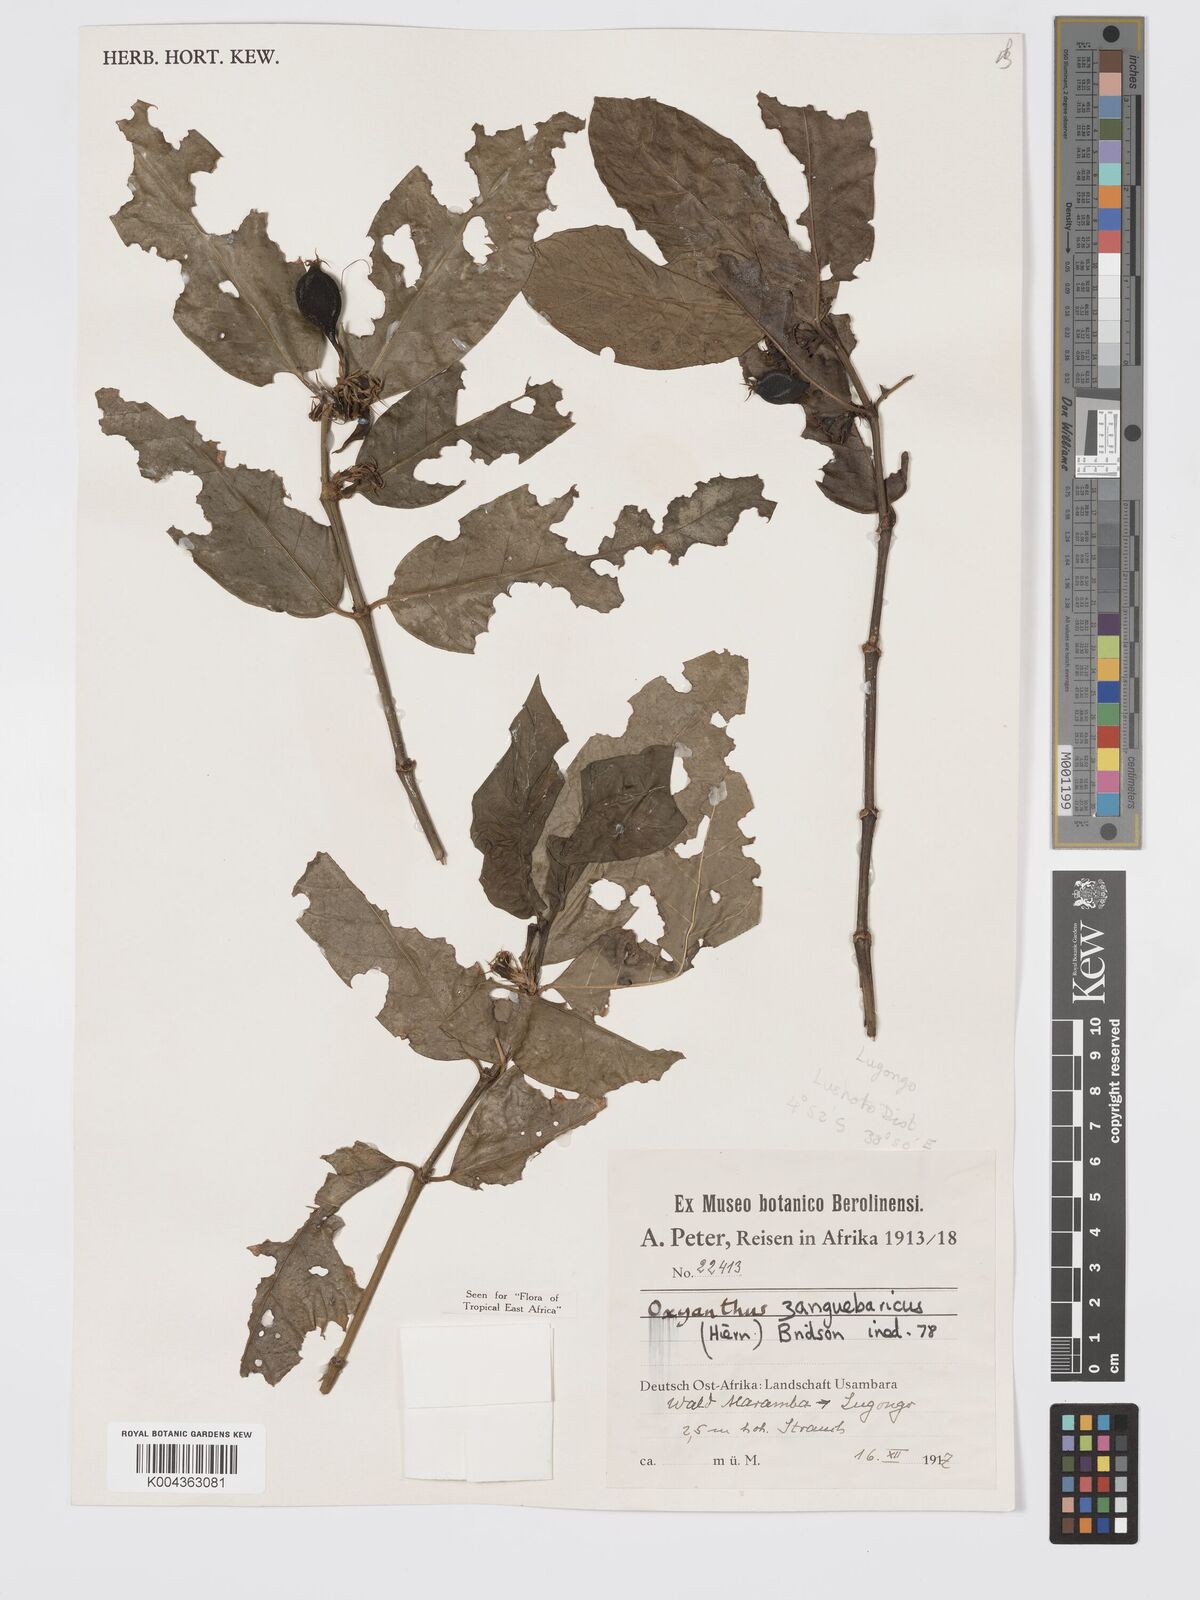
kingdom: Plantae
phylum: Tracheophyta
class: Magnoliopsida
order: Gentianales
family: Rubiaceae
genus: Oxyanthus
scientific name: Oxyanthus zanguebaricus
